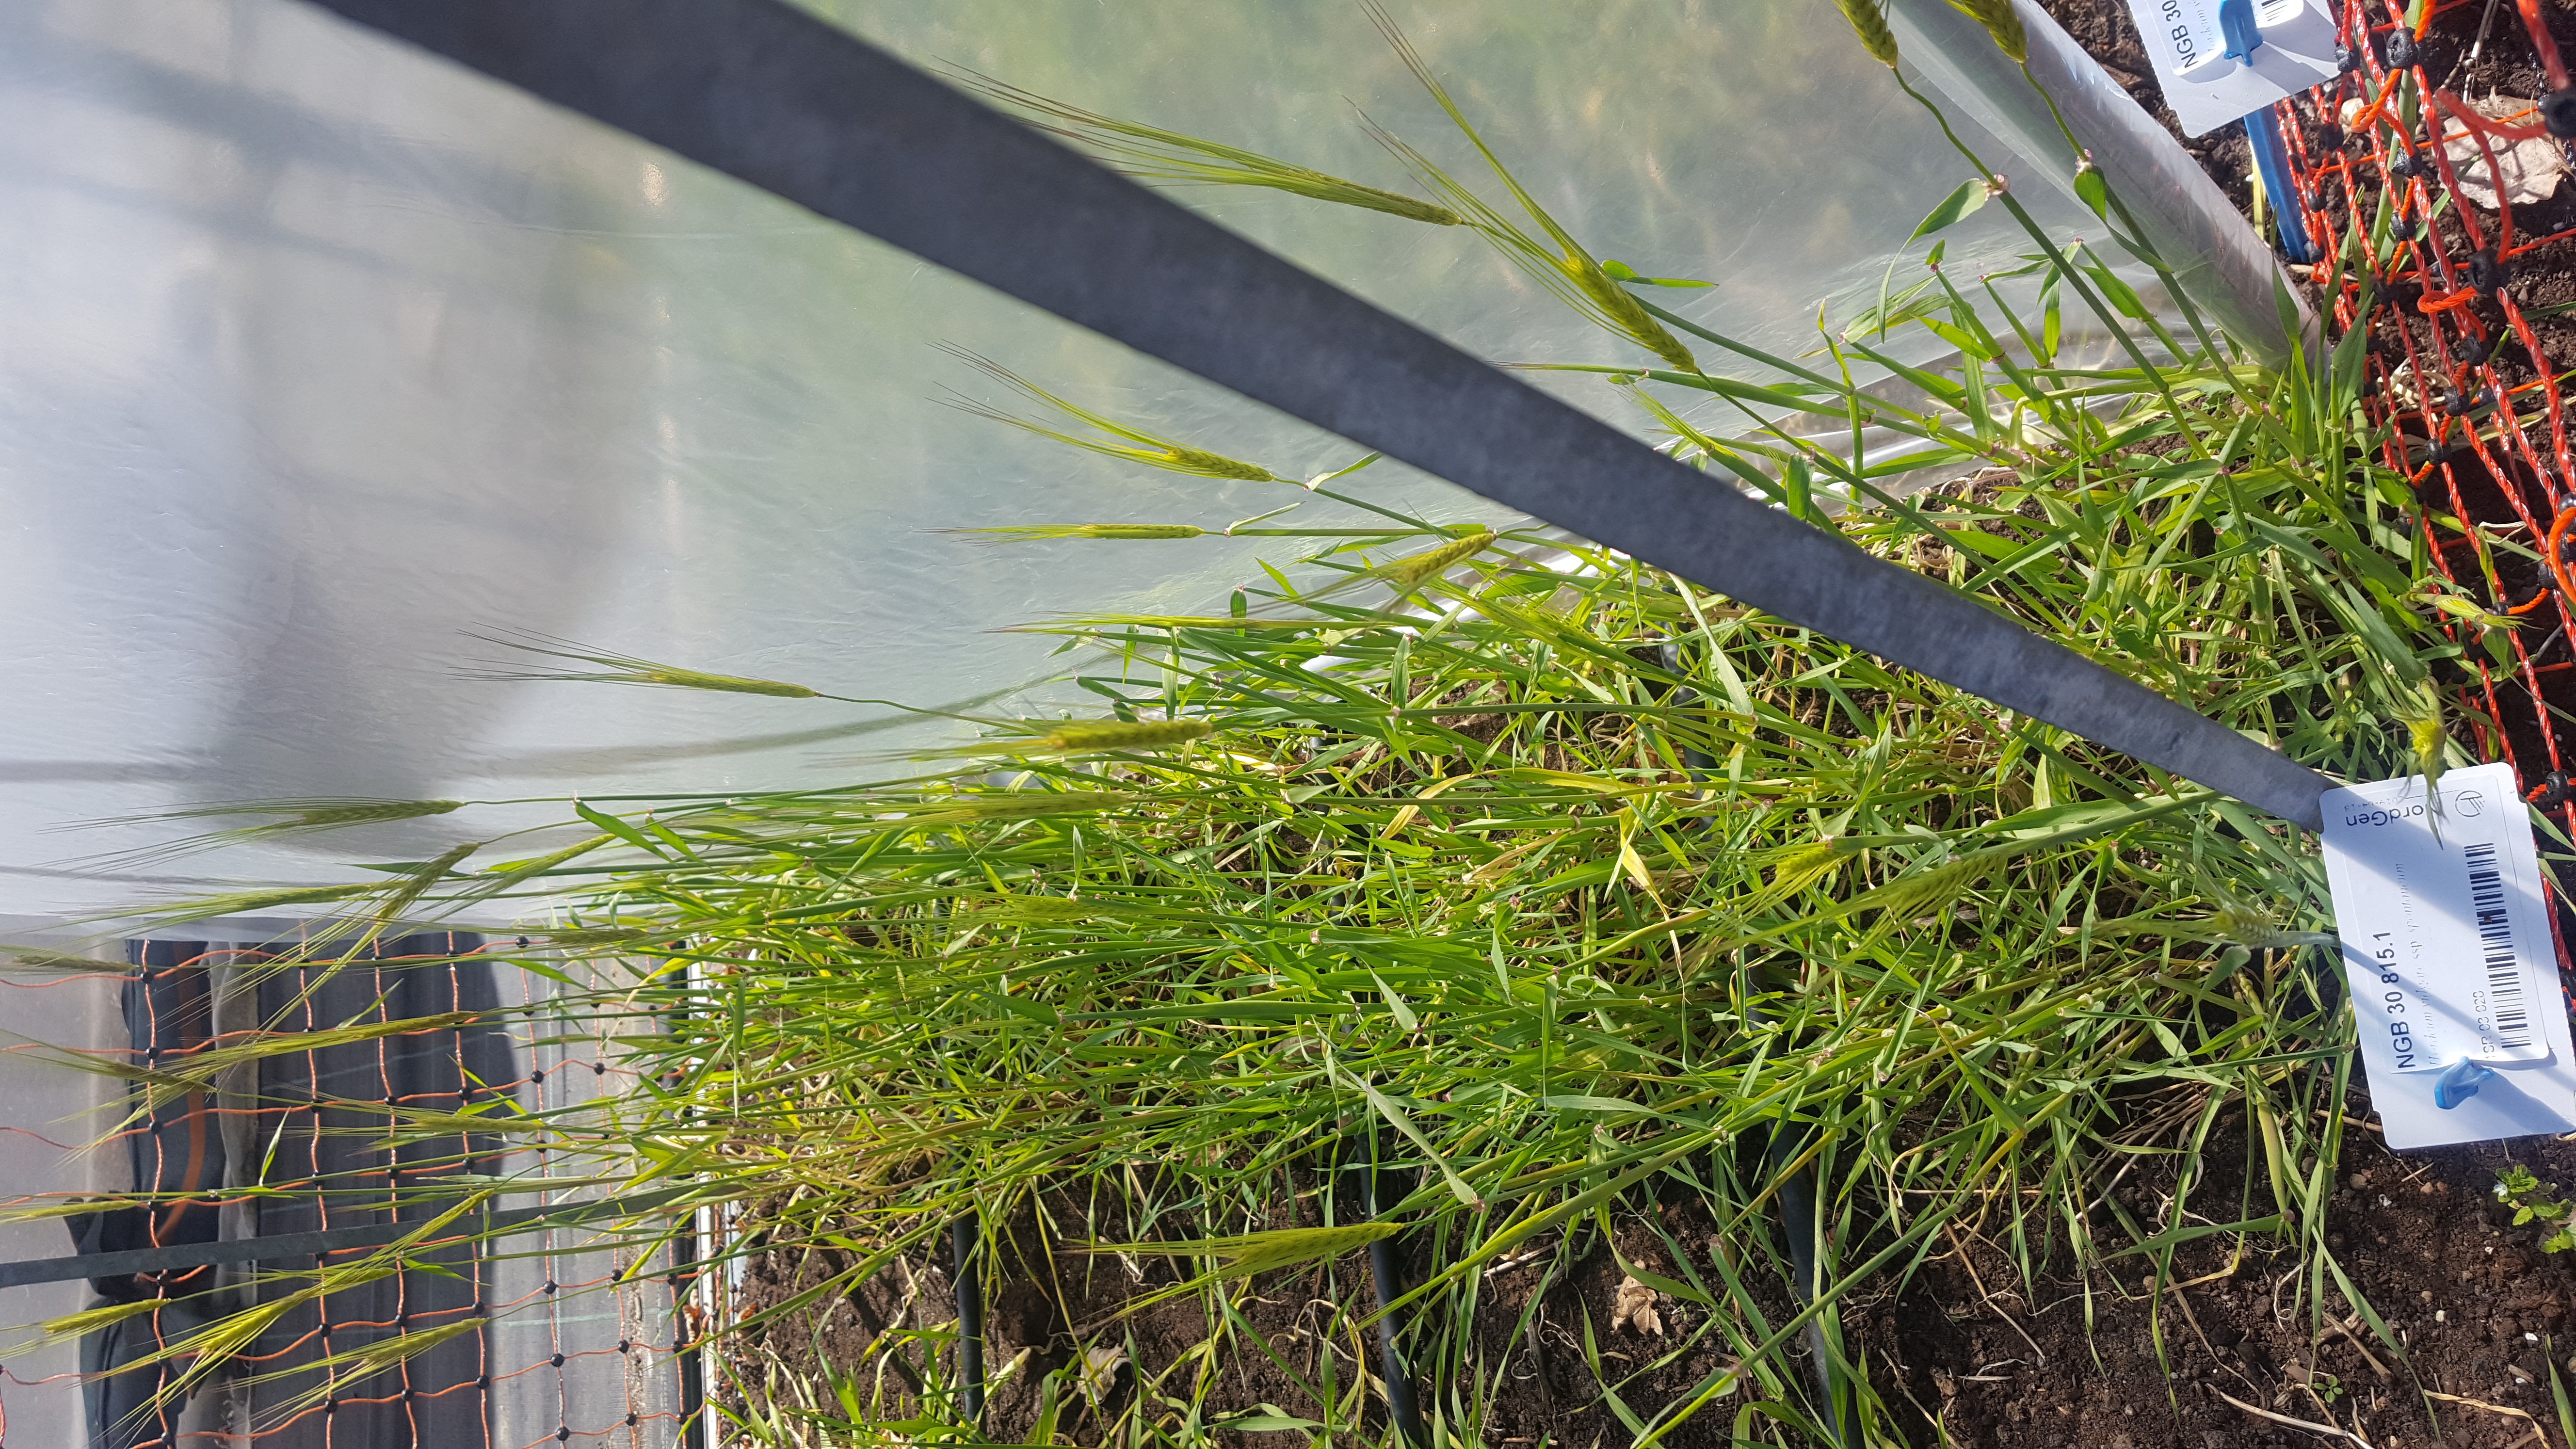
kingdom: Plantae
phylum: Tracheophyta
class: Liliopsida
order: Poales
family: Poaceae
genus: Hordeum
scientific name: Hordeum spontaneum
